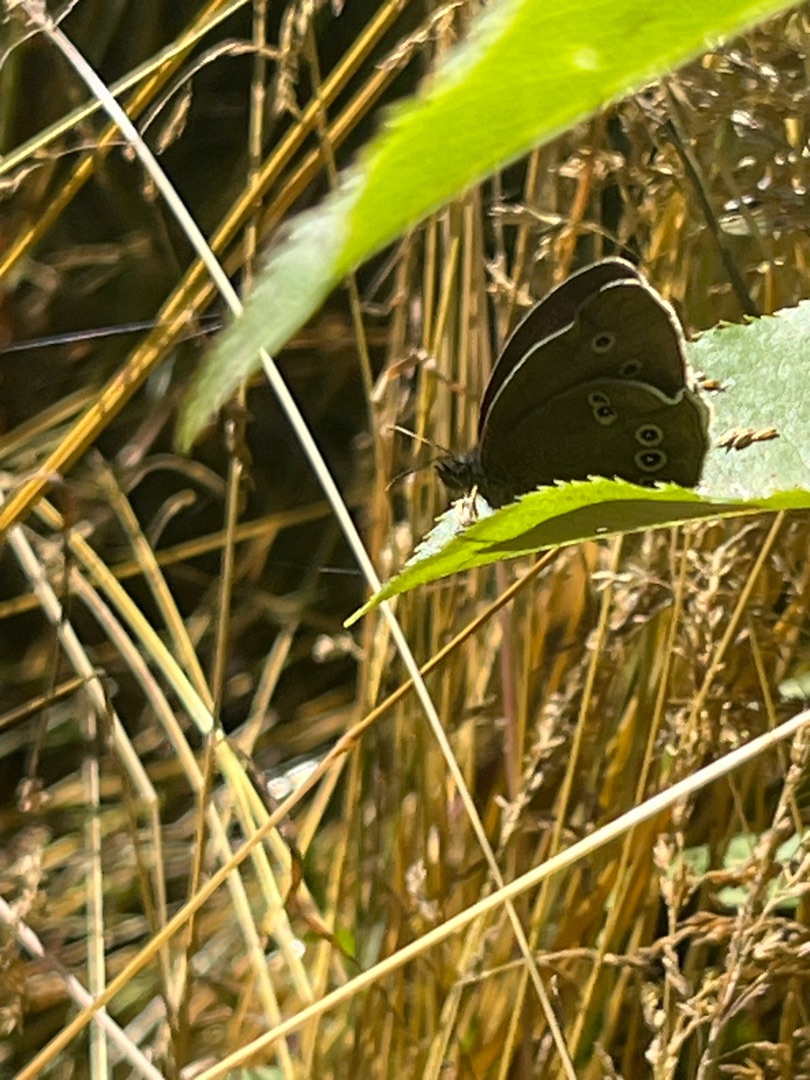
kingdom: Animalia
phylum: Arthropoda
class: Insecta
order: Lepidoptera
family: Nymphalidae
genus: Aphantopus
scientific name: Aphantopus hyperantus
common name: Engrandøje
